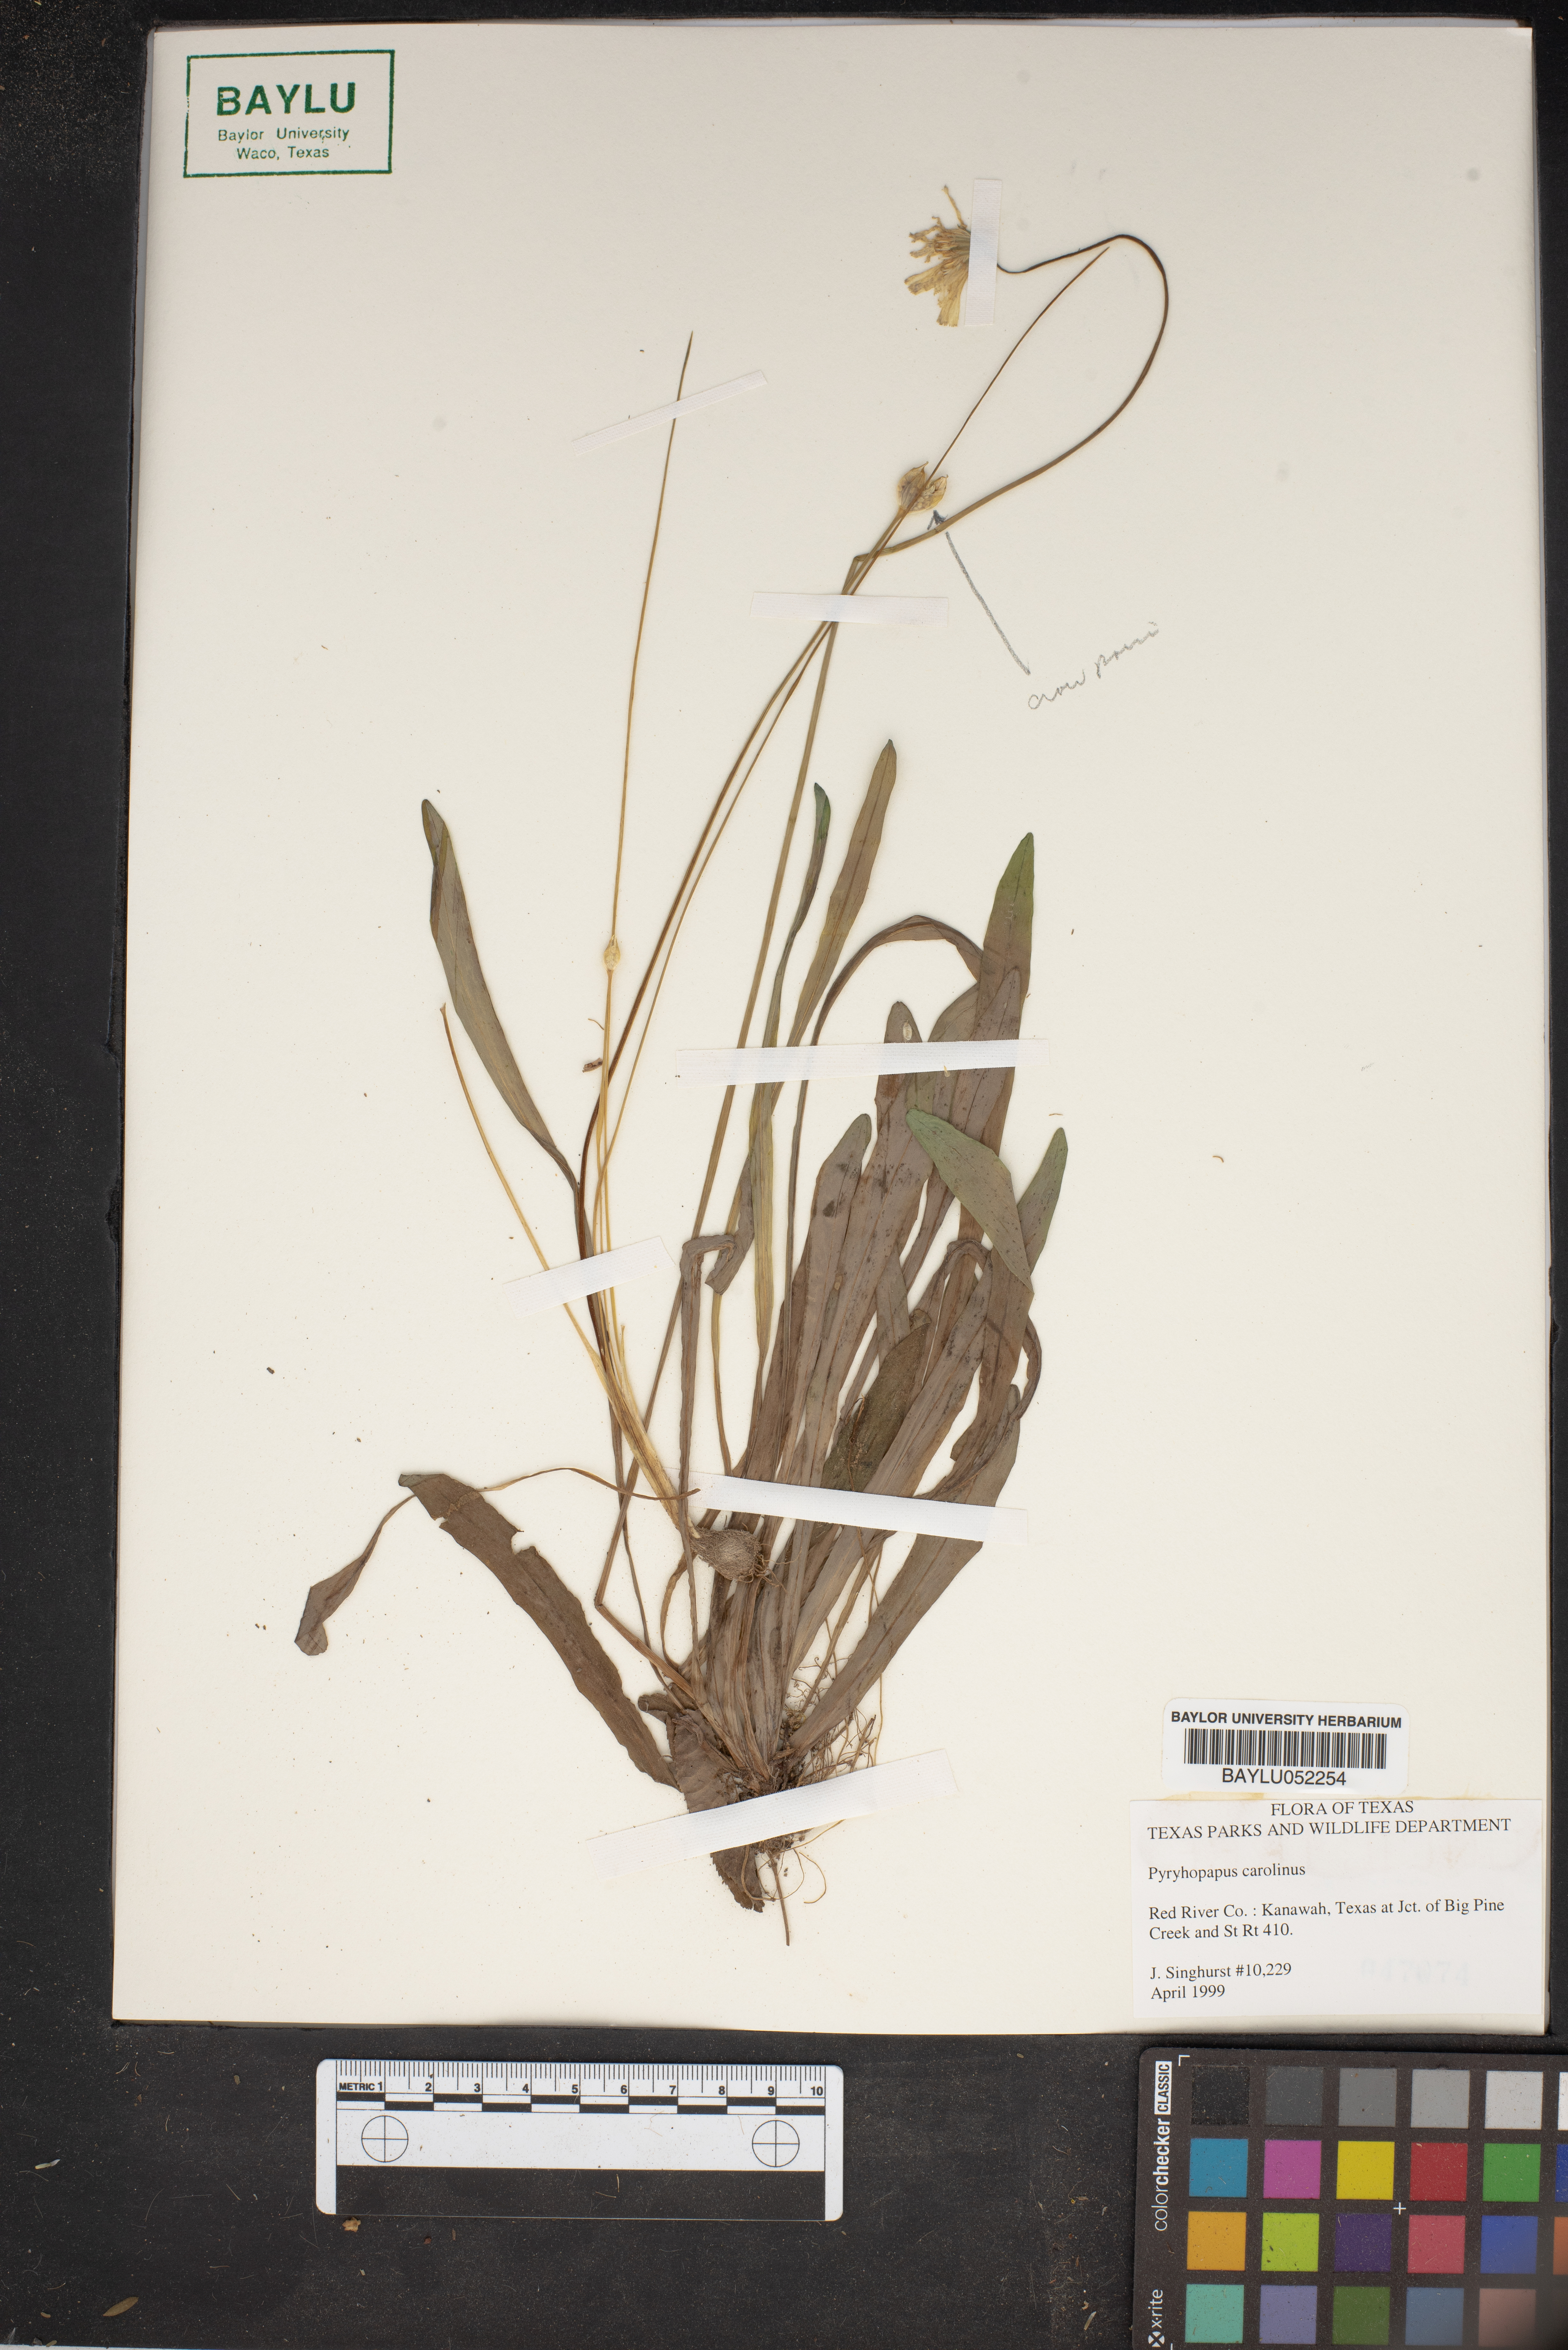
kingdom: Plantae
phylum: Tracheophyta
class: Magnoliopsida
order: Asterales
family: Asteraceae
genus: Pyrrhopappus
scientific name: Pyrrhopappus carolinianus
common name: Carolina desert-chicory
